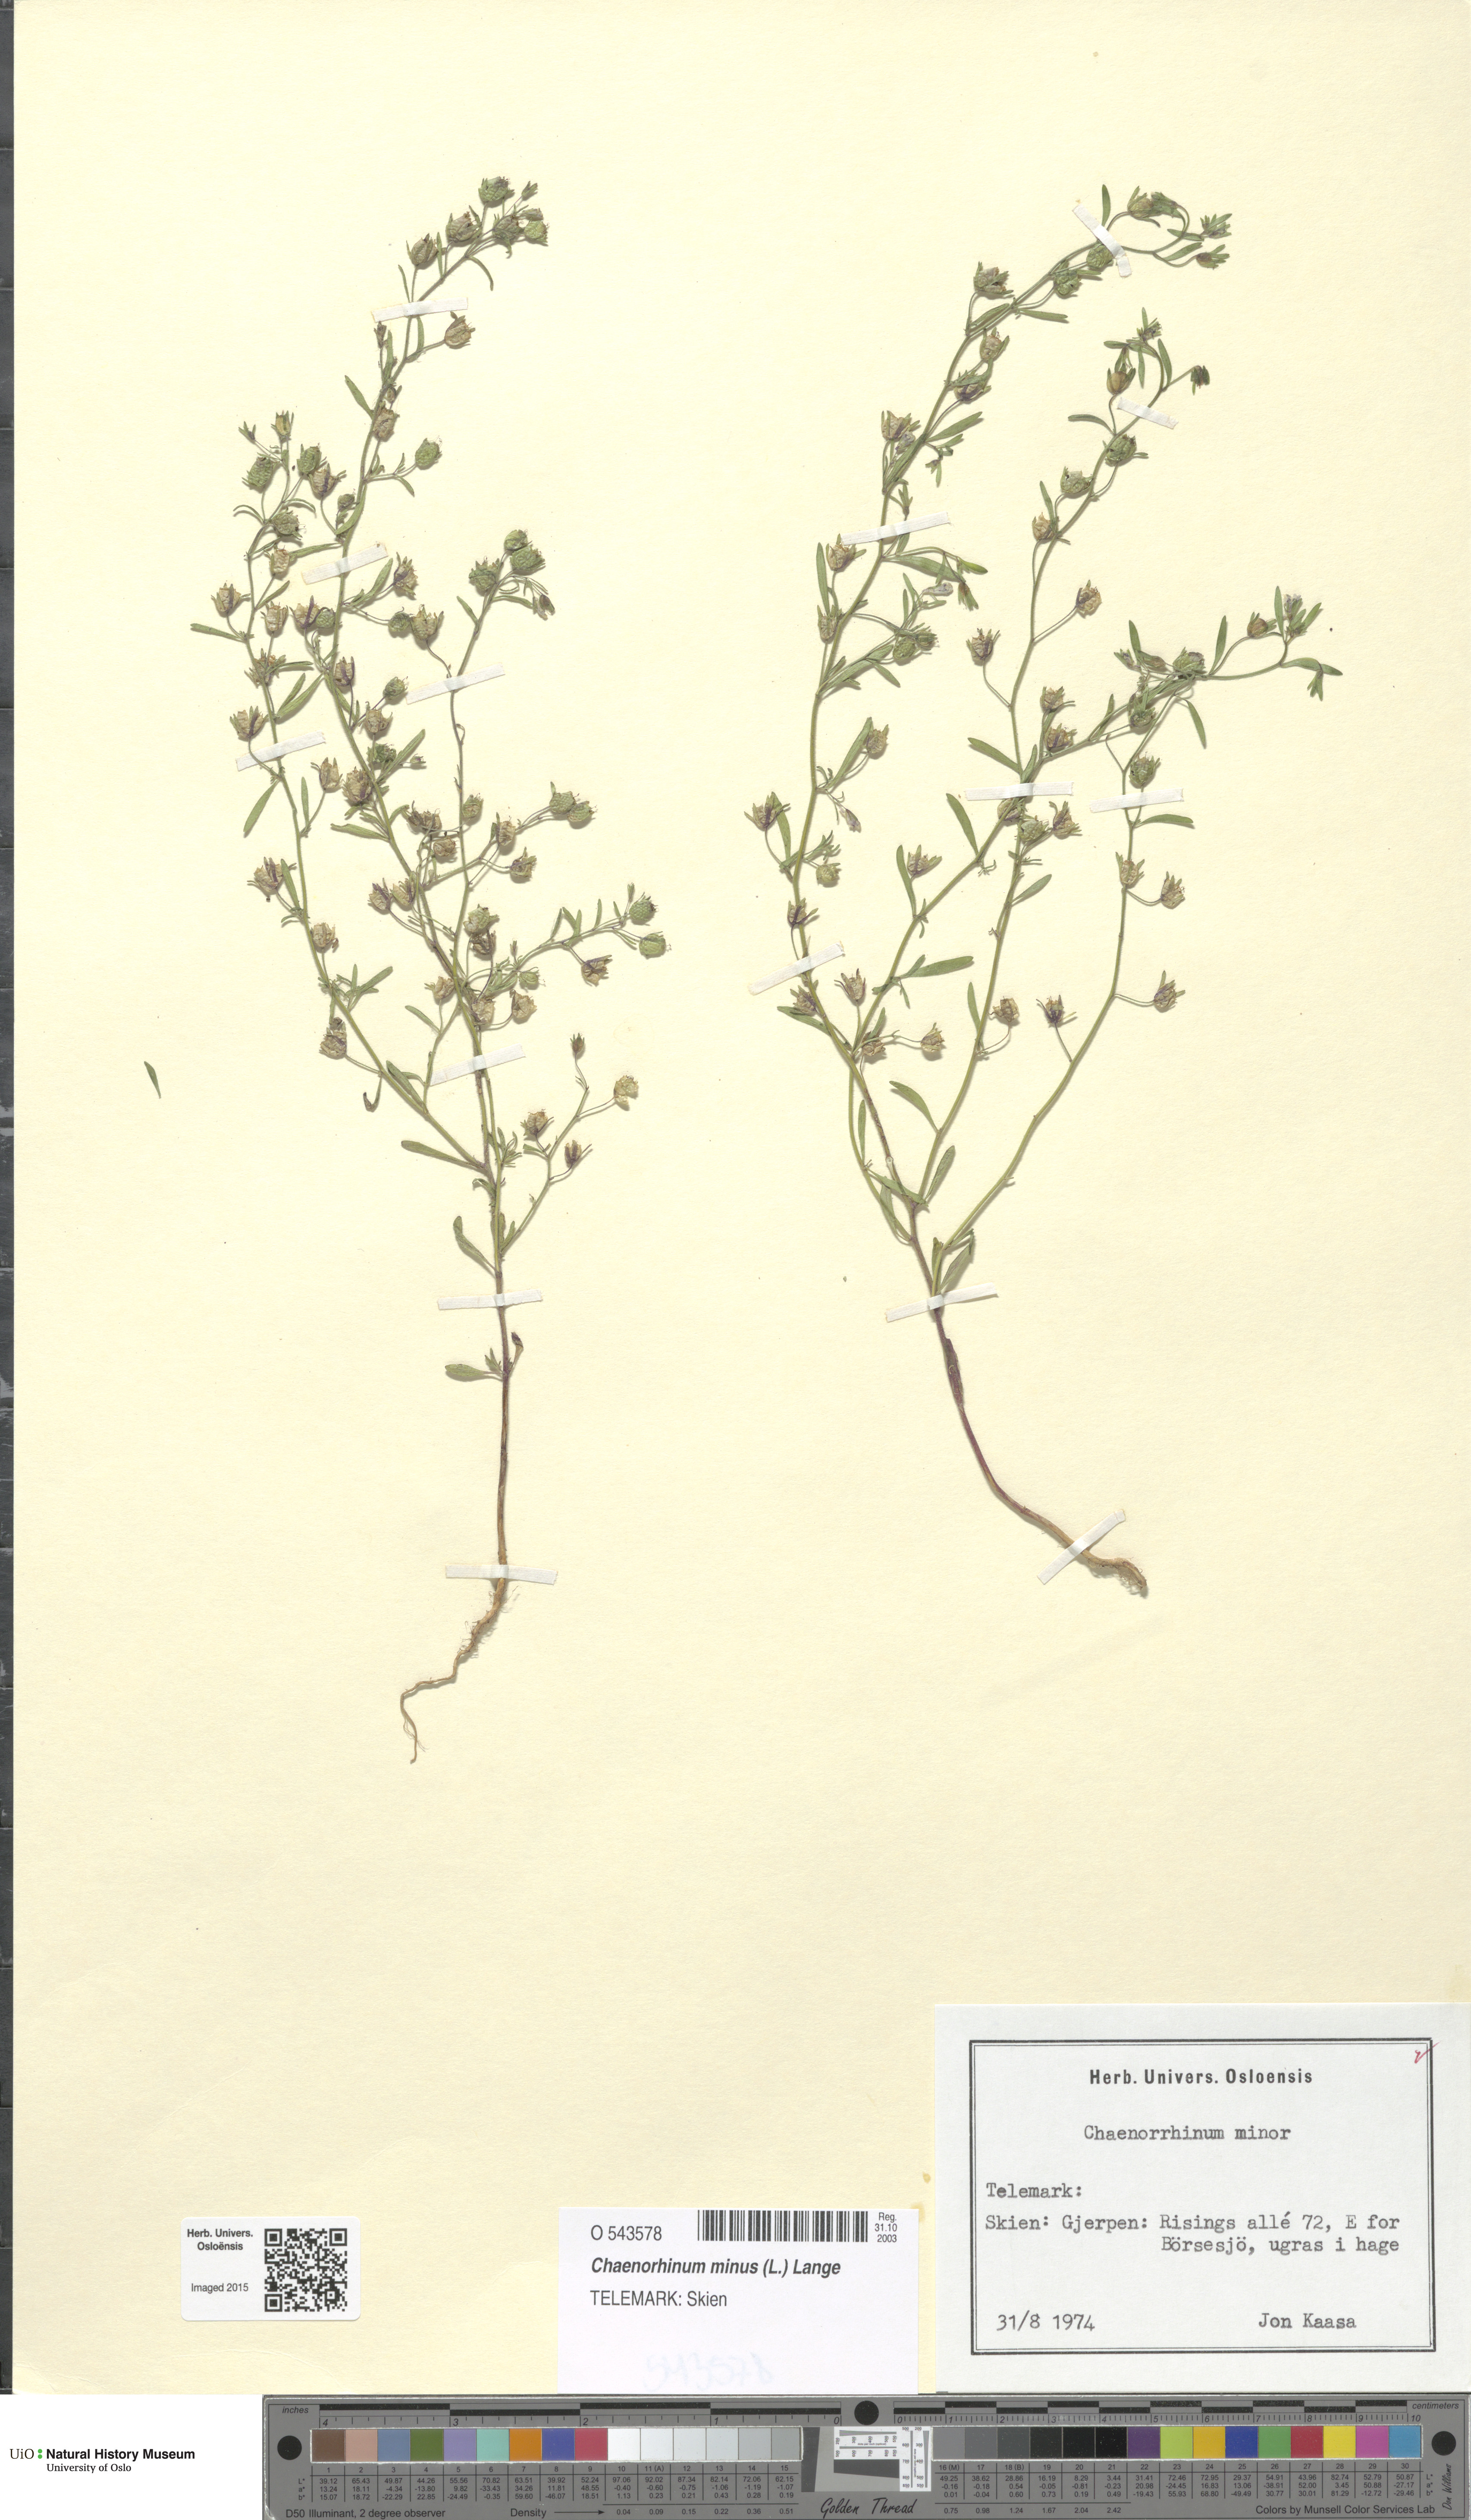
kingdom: Plantae
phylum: Tracheophyta
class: Magnoliopsida
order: Lamiales
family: Plantaginaceae
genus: Chaenorhinum
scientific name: Chaenorhinum minus
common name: Dwarf snapdragon
